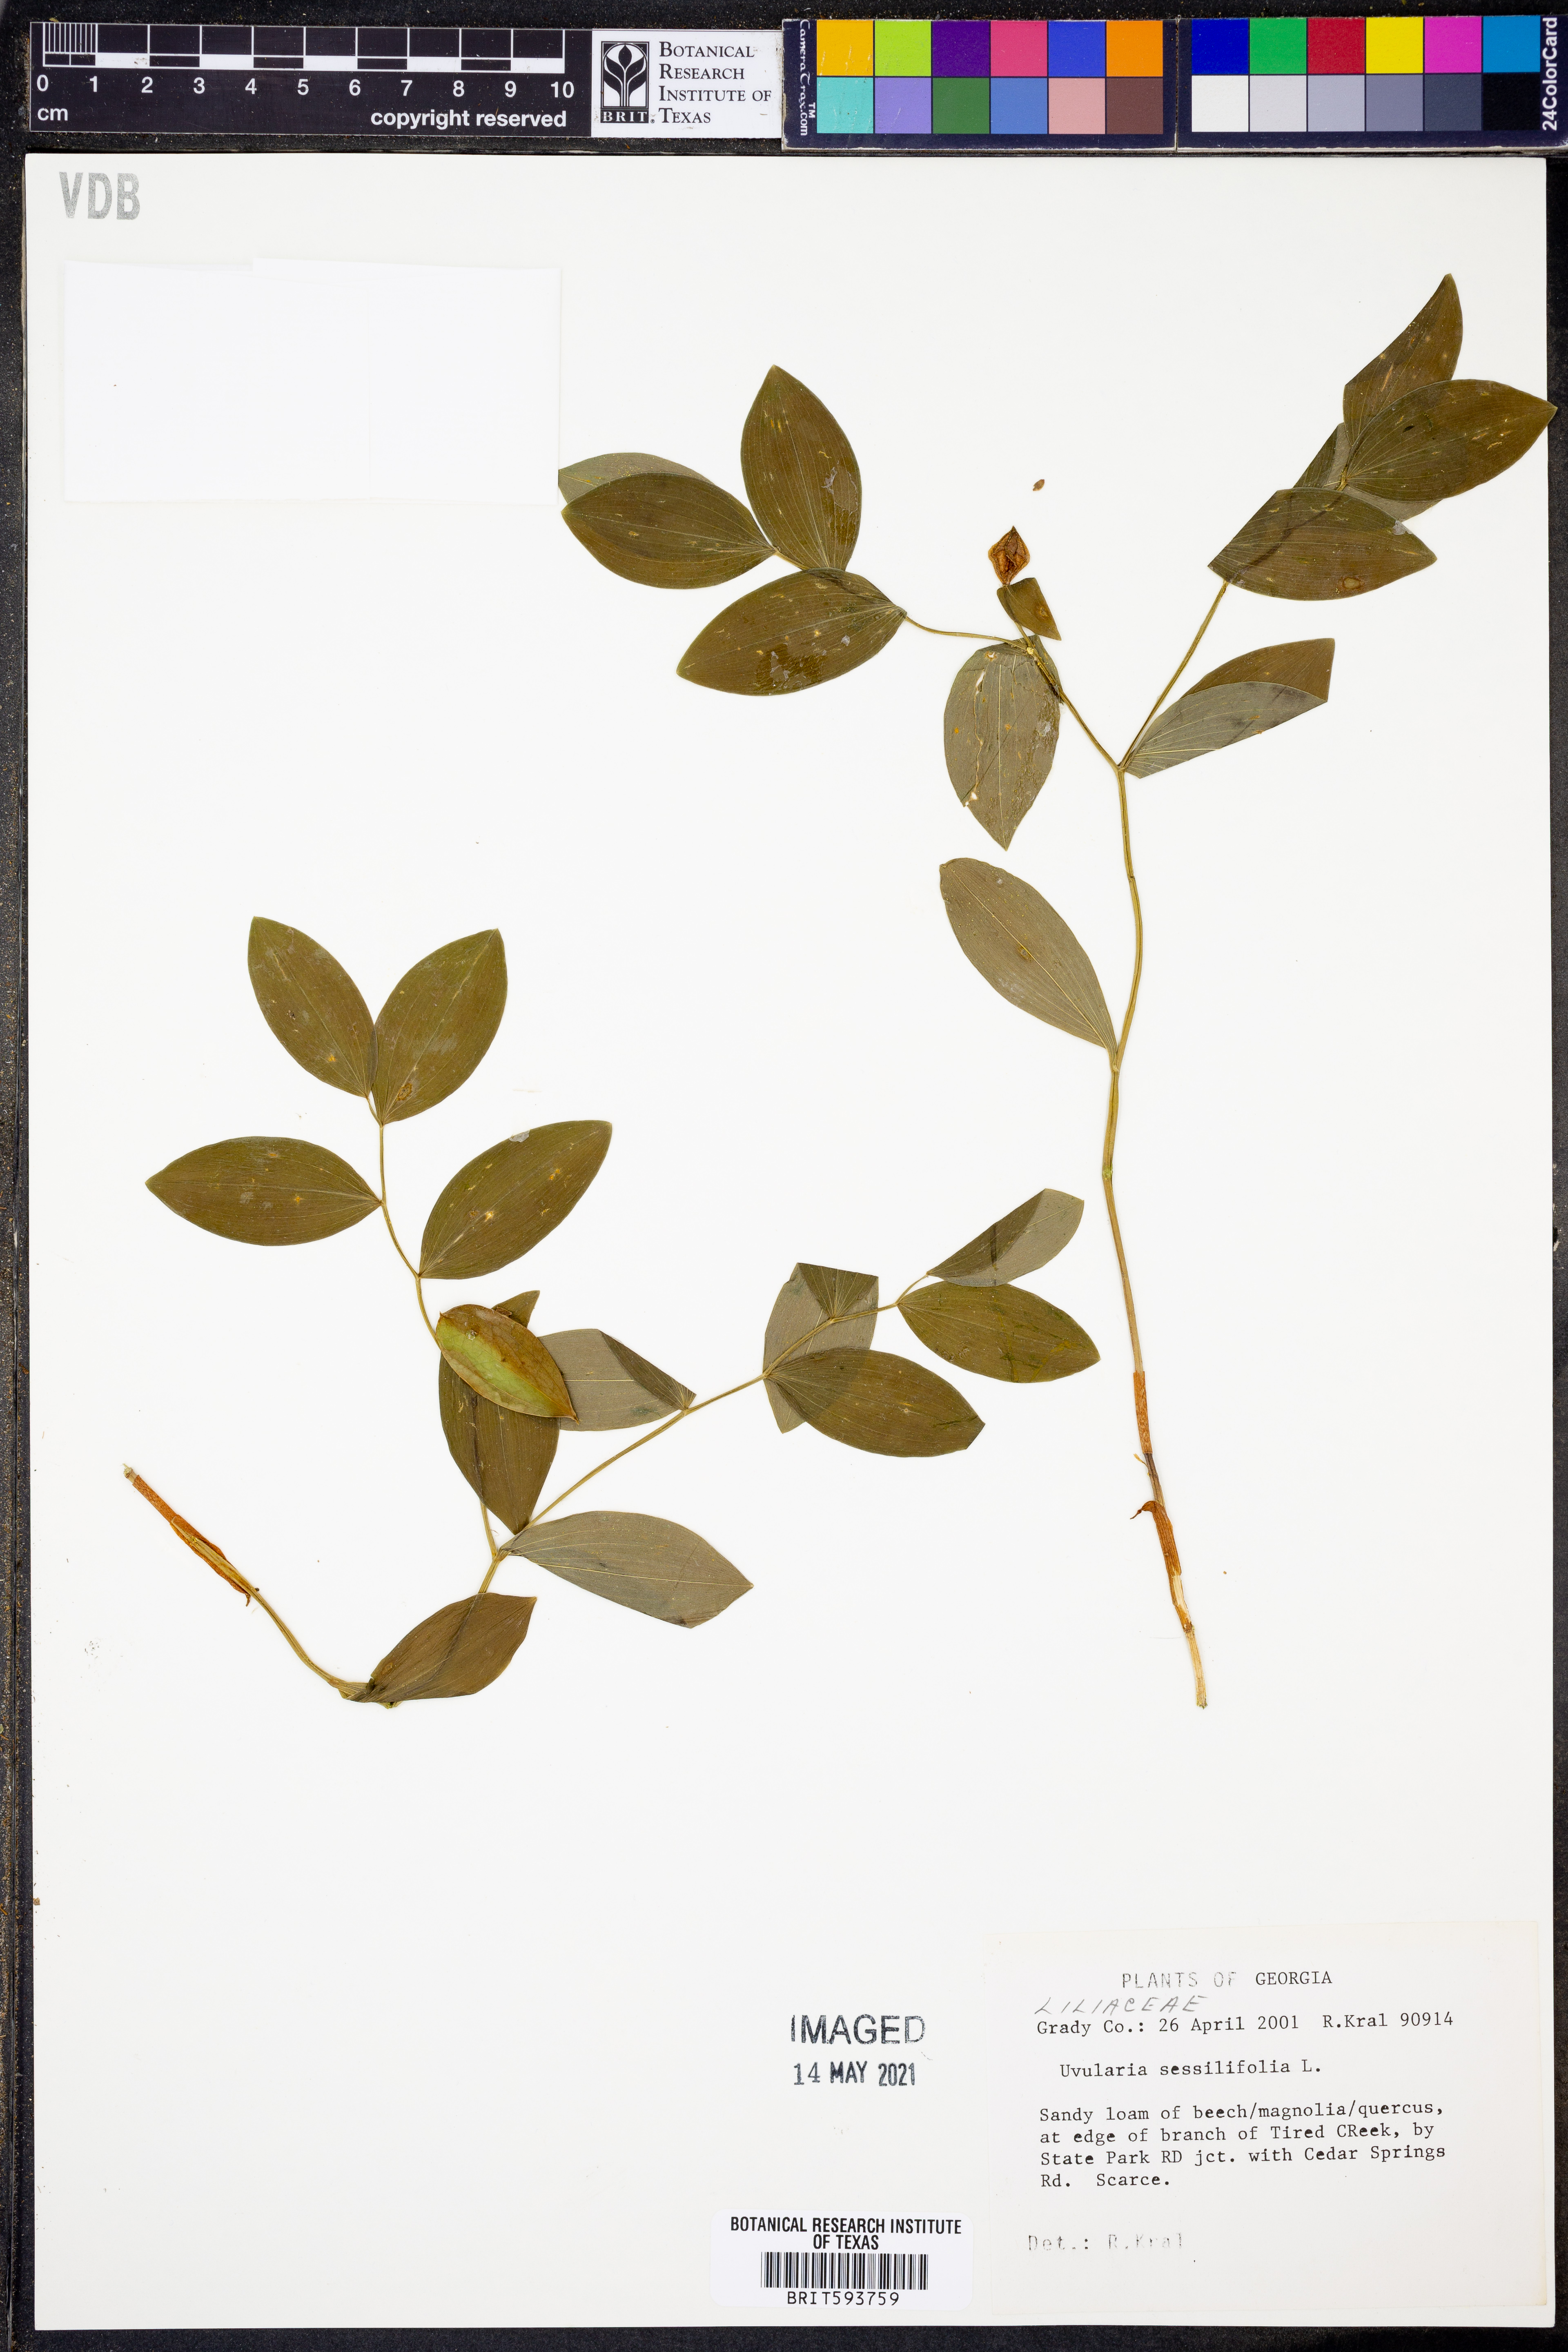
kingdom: Plantae
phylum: Tracheophyta
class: Liliopsida
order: Liliales
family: Colchicaceae
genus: Uvularia
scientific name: Uvularia sessilifolia
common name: Straw-lily
